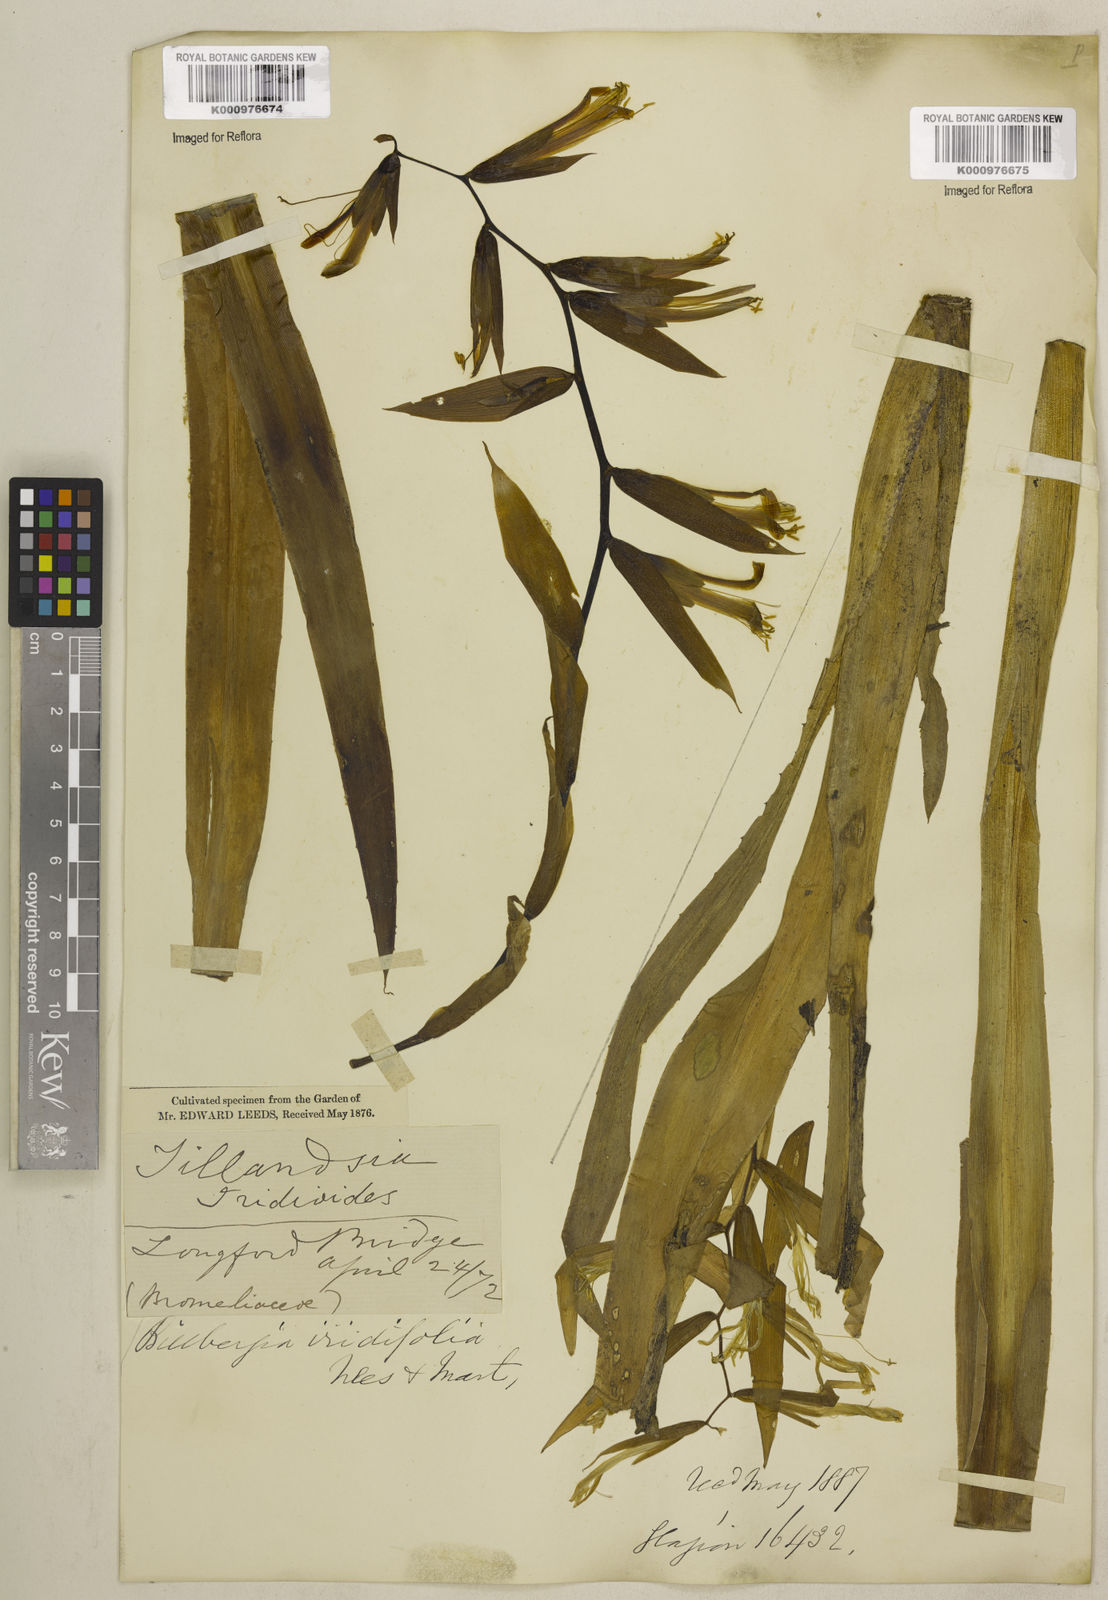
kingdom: Plantae
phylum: Tracheophyta
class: Liliopsida
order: Poales
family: Bromeliaceae
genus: Billbergia
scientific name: Billbergia iridifolia
